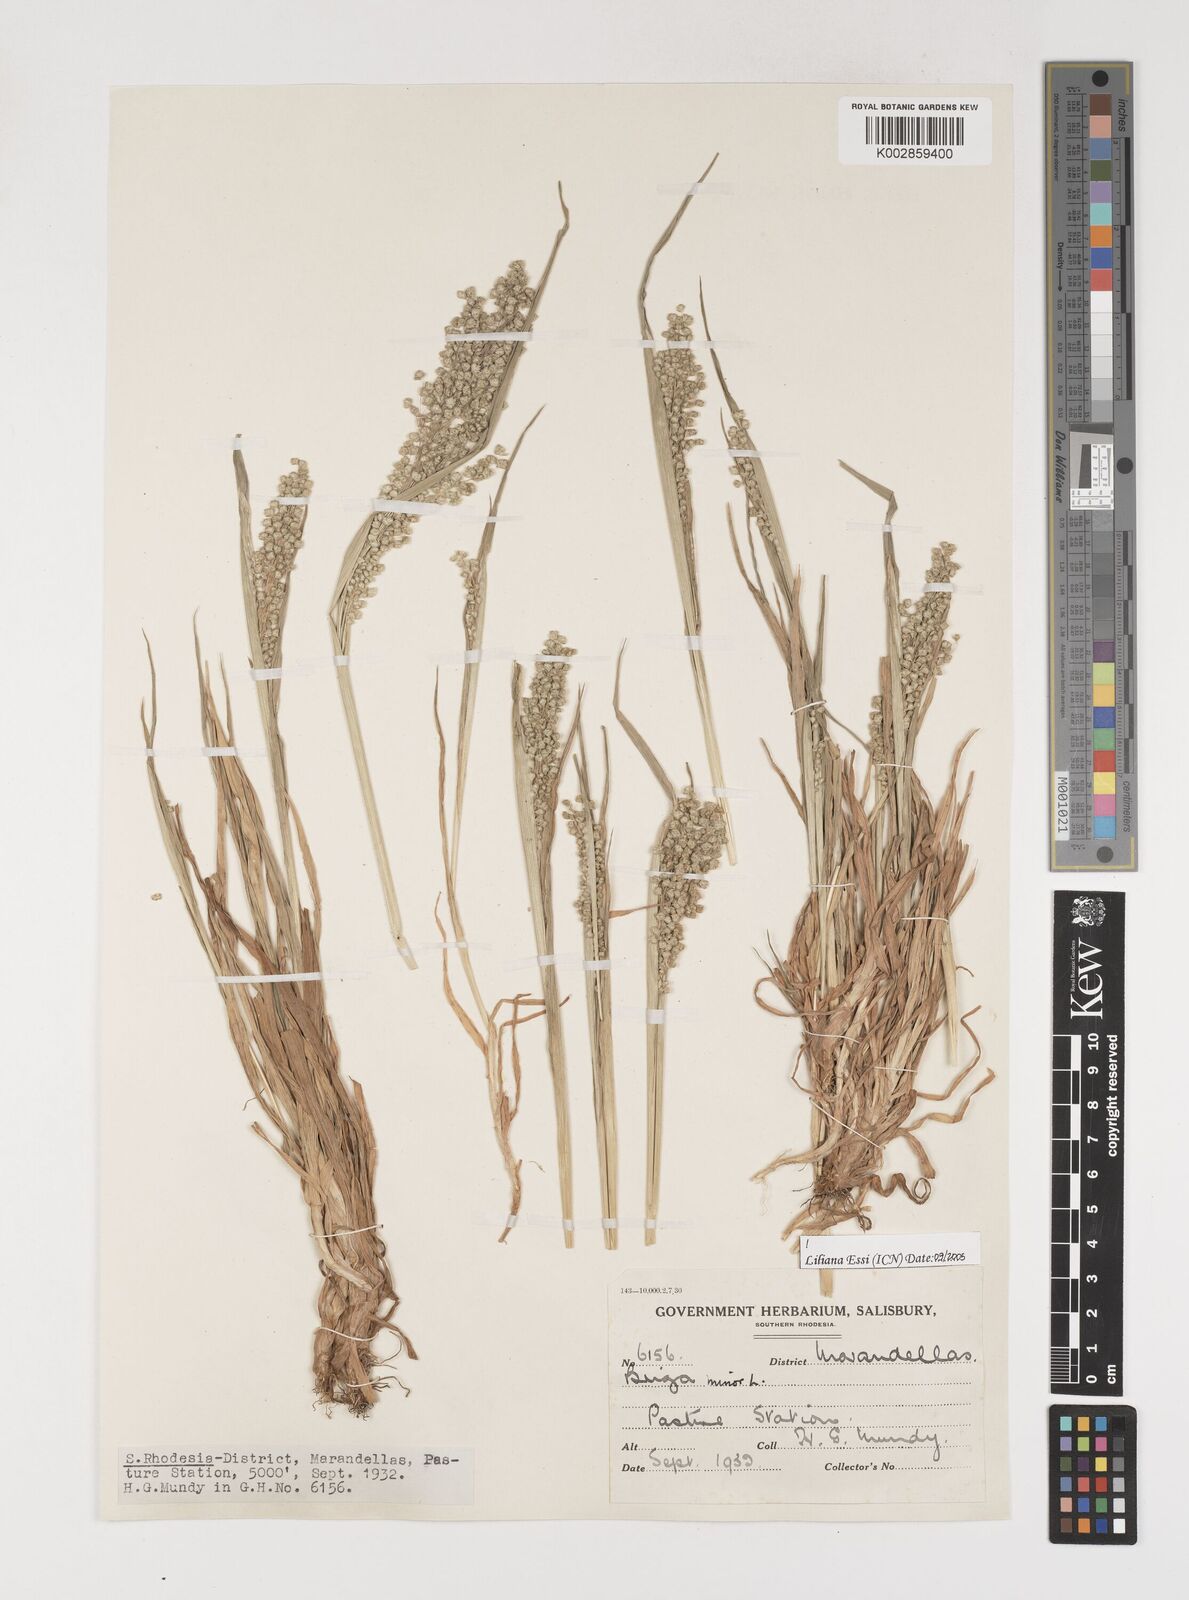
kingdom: Plantae
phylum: Tracheophyta
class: Liliopsida
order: Poales
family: Poaceae
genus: Briza
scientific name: Briza minor
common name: Lesser quaking-grass
